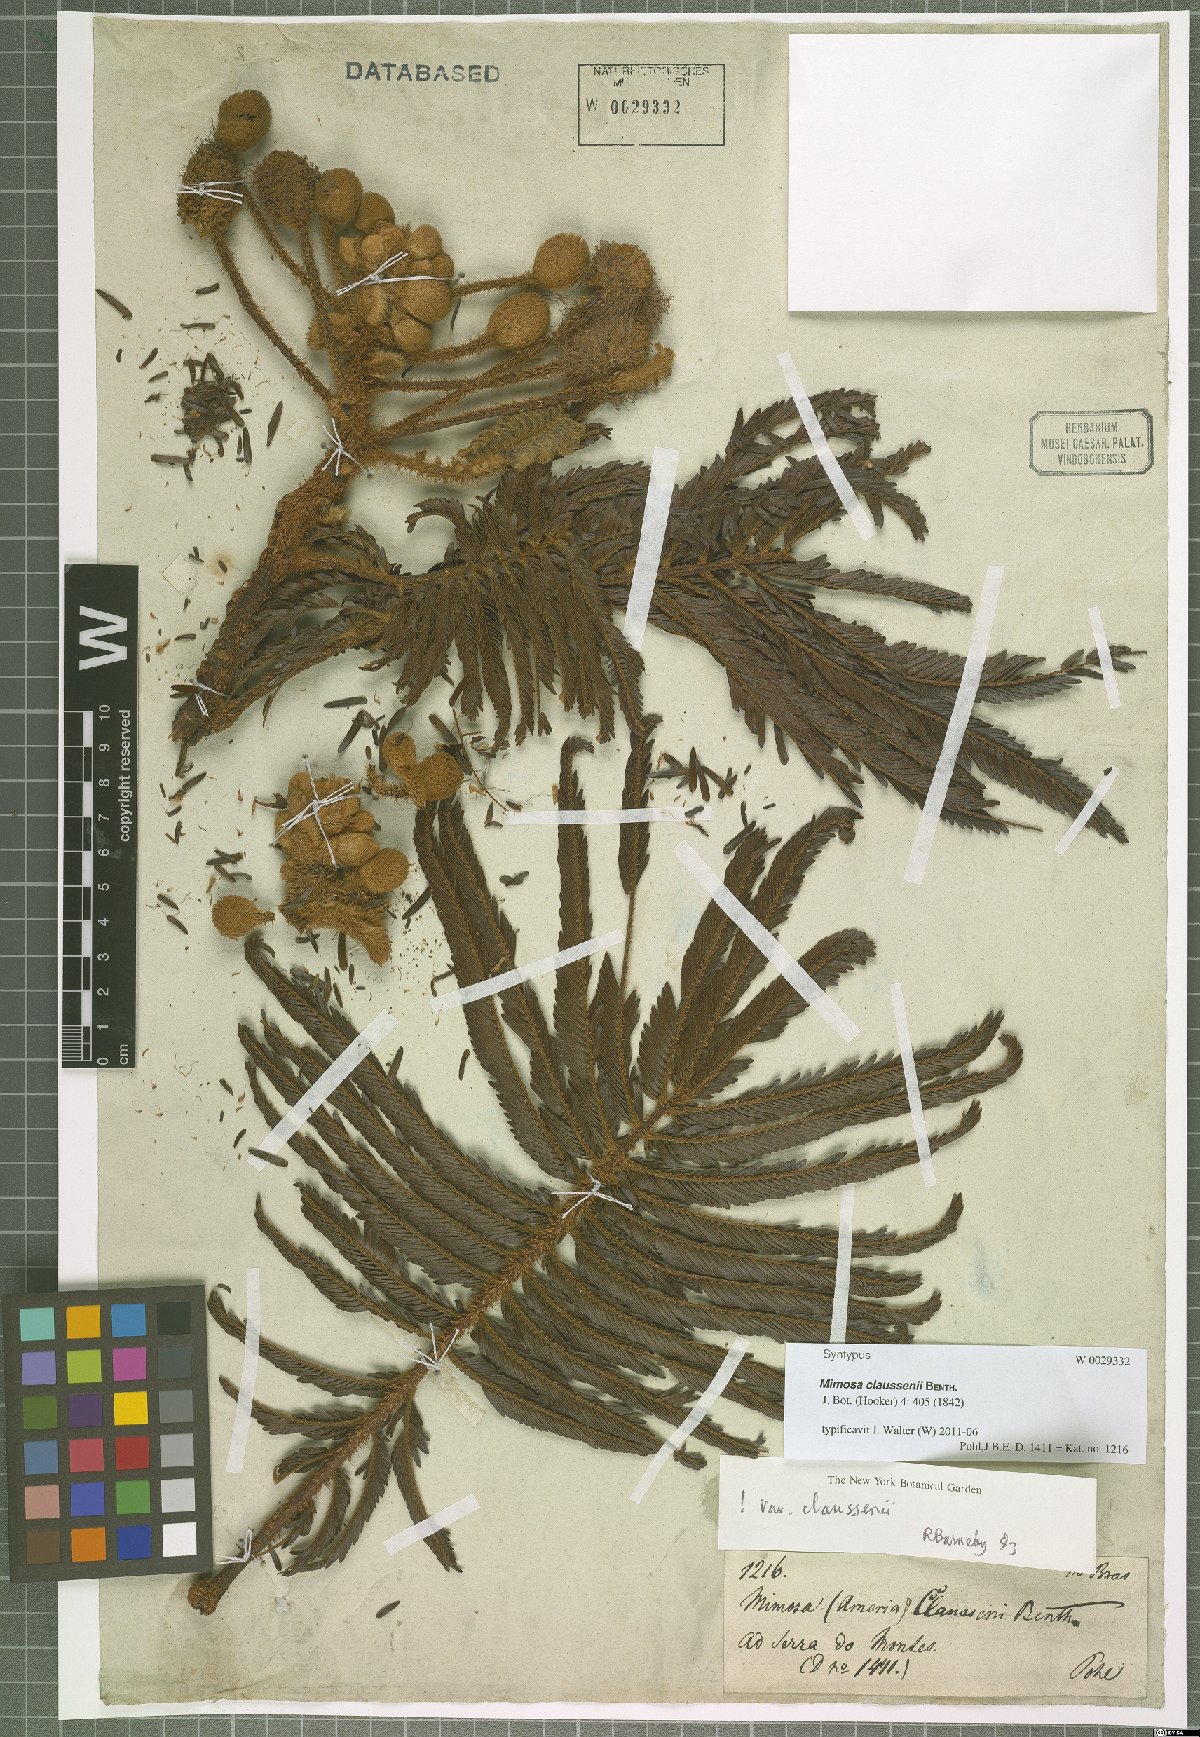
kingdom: Plantae
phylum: Tracheophyta
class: Magnoliopsida
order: Fabales
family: Fabaceae
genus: Mimosa
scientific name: Mimosa claussenii
